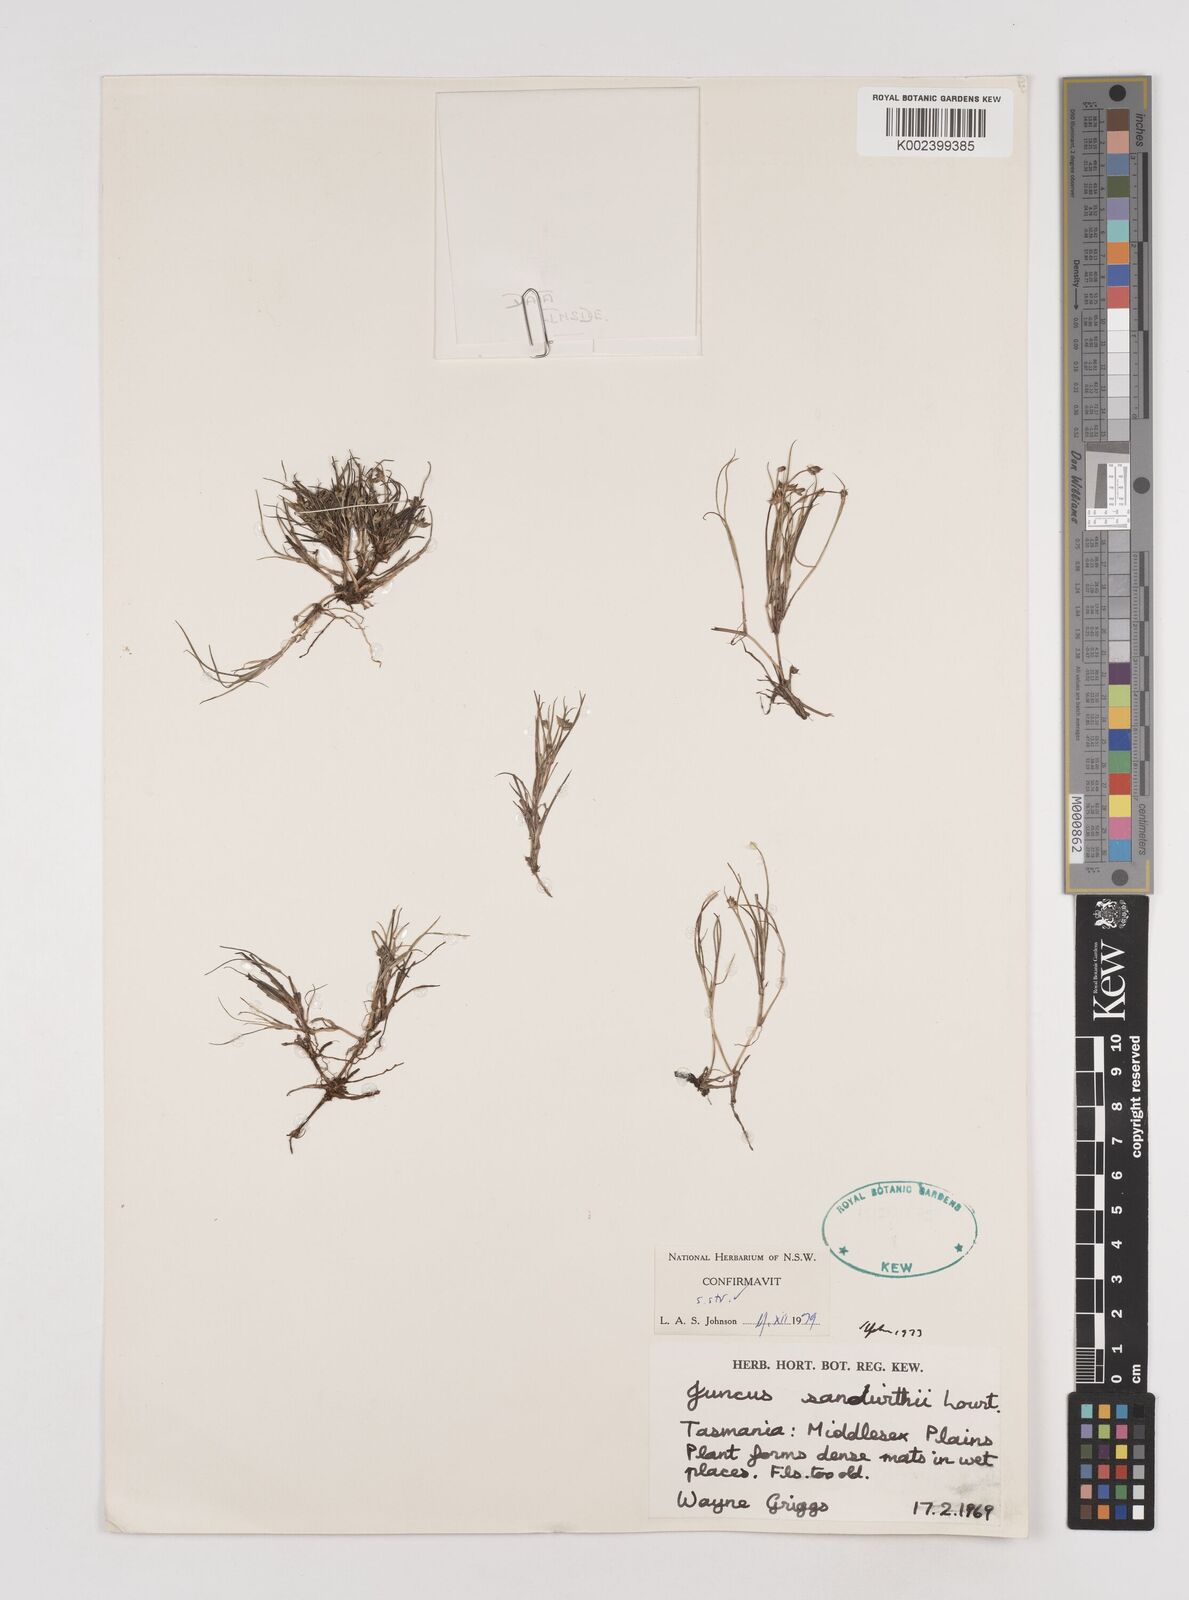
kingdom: Plantae
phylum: Tracheophyta
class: Liliopsida
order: Poales
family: Juncaceae
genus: Juncus
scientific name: Juncus sandwithii
